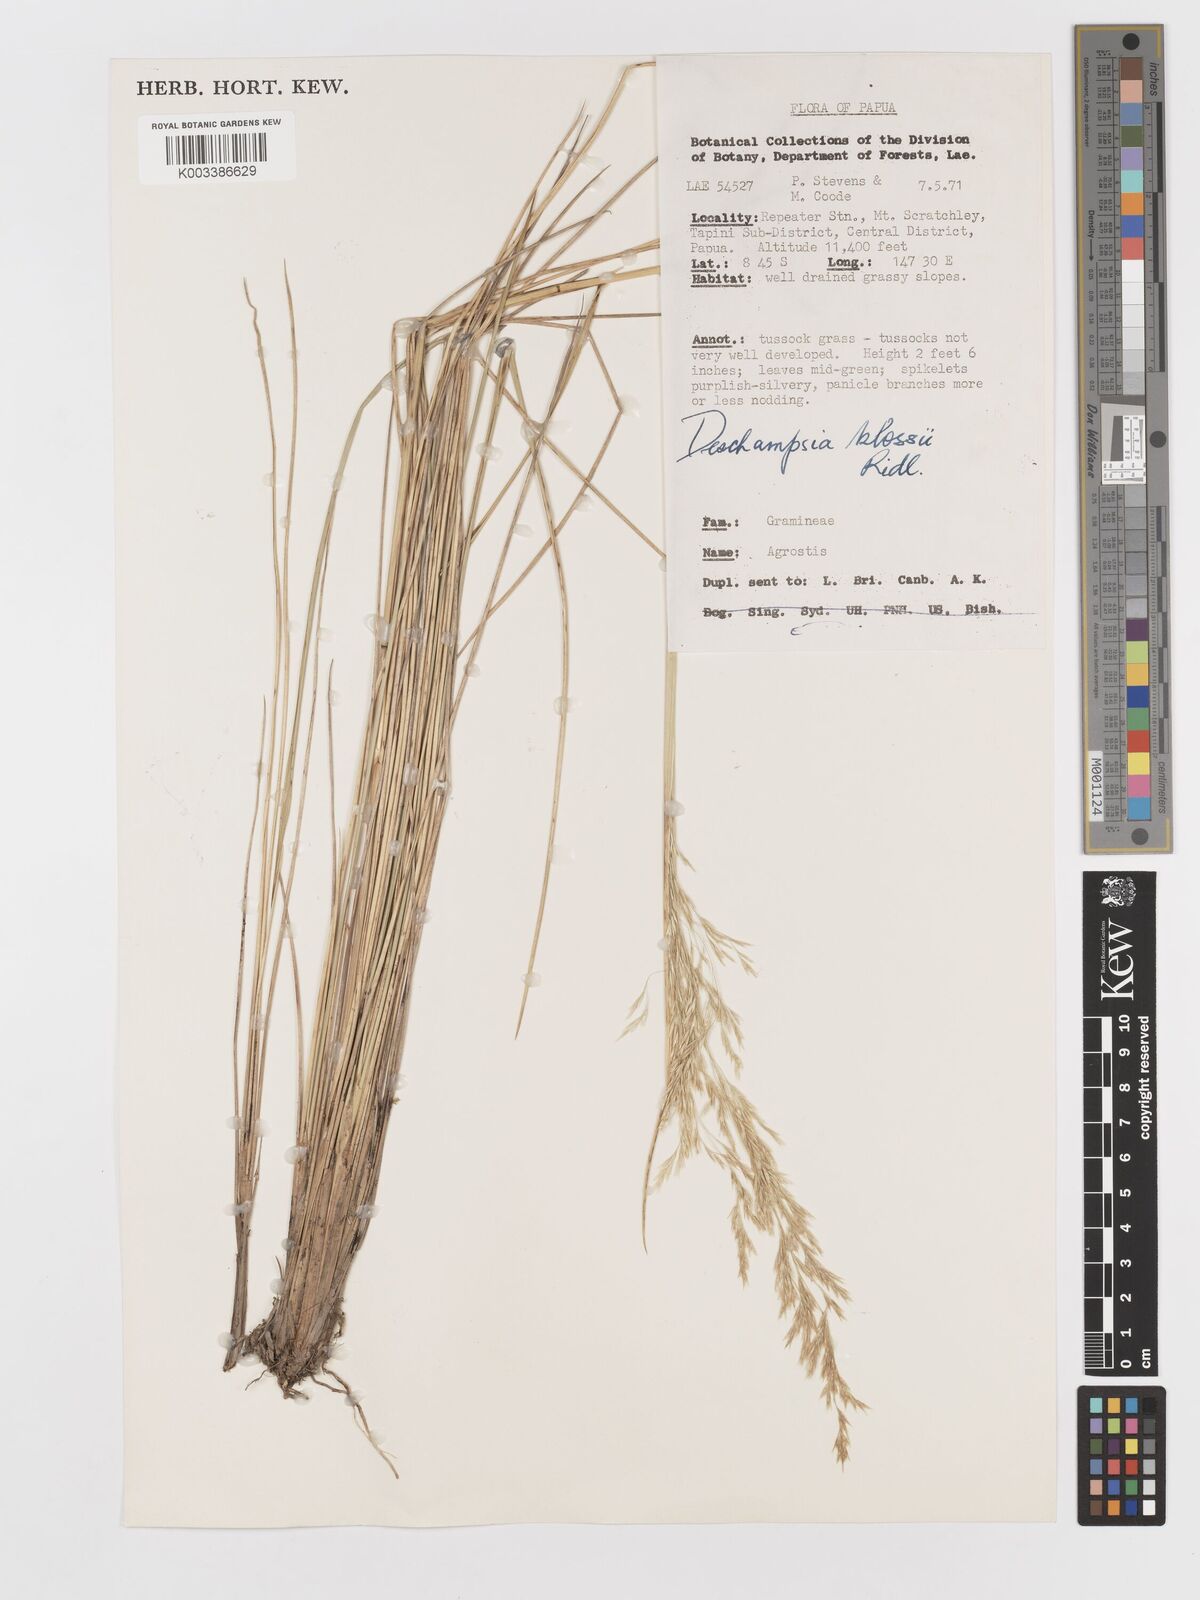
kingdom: Plantae
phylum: Tracheophyta
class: Liliopsida
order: Poales
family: Poaceae
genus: Deschampsia
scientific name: Deschampsia klossii
